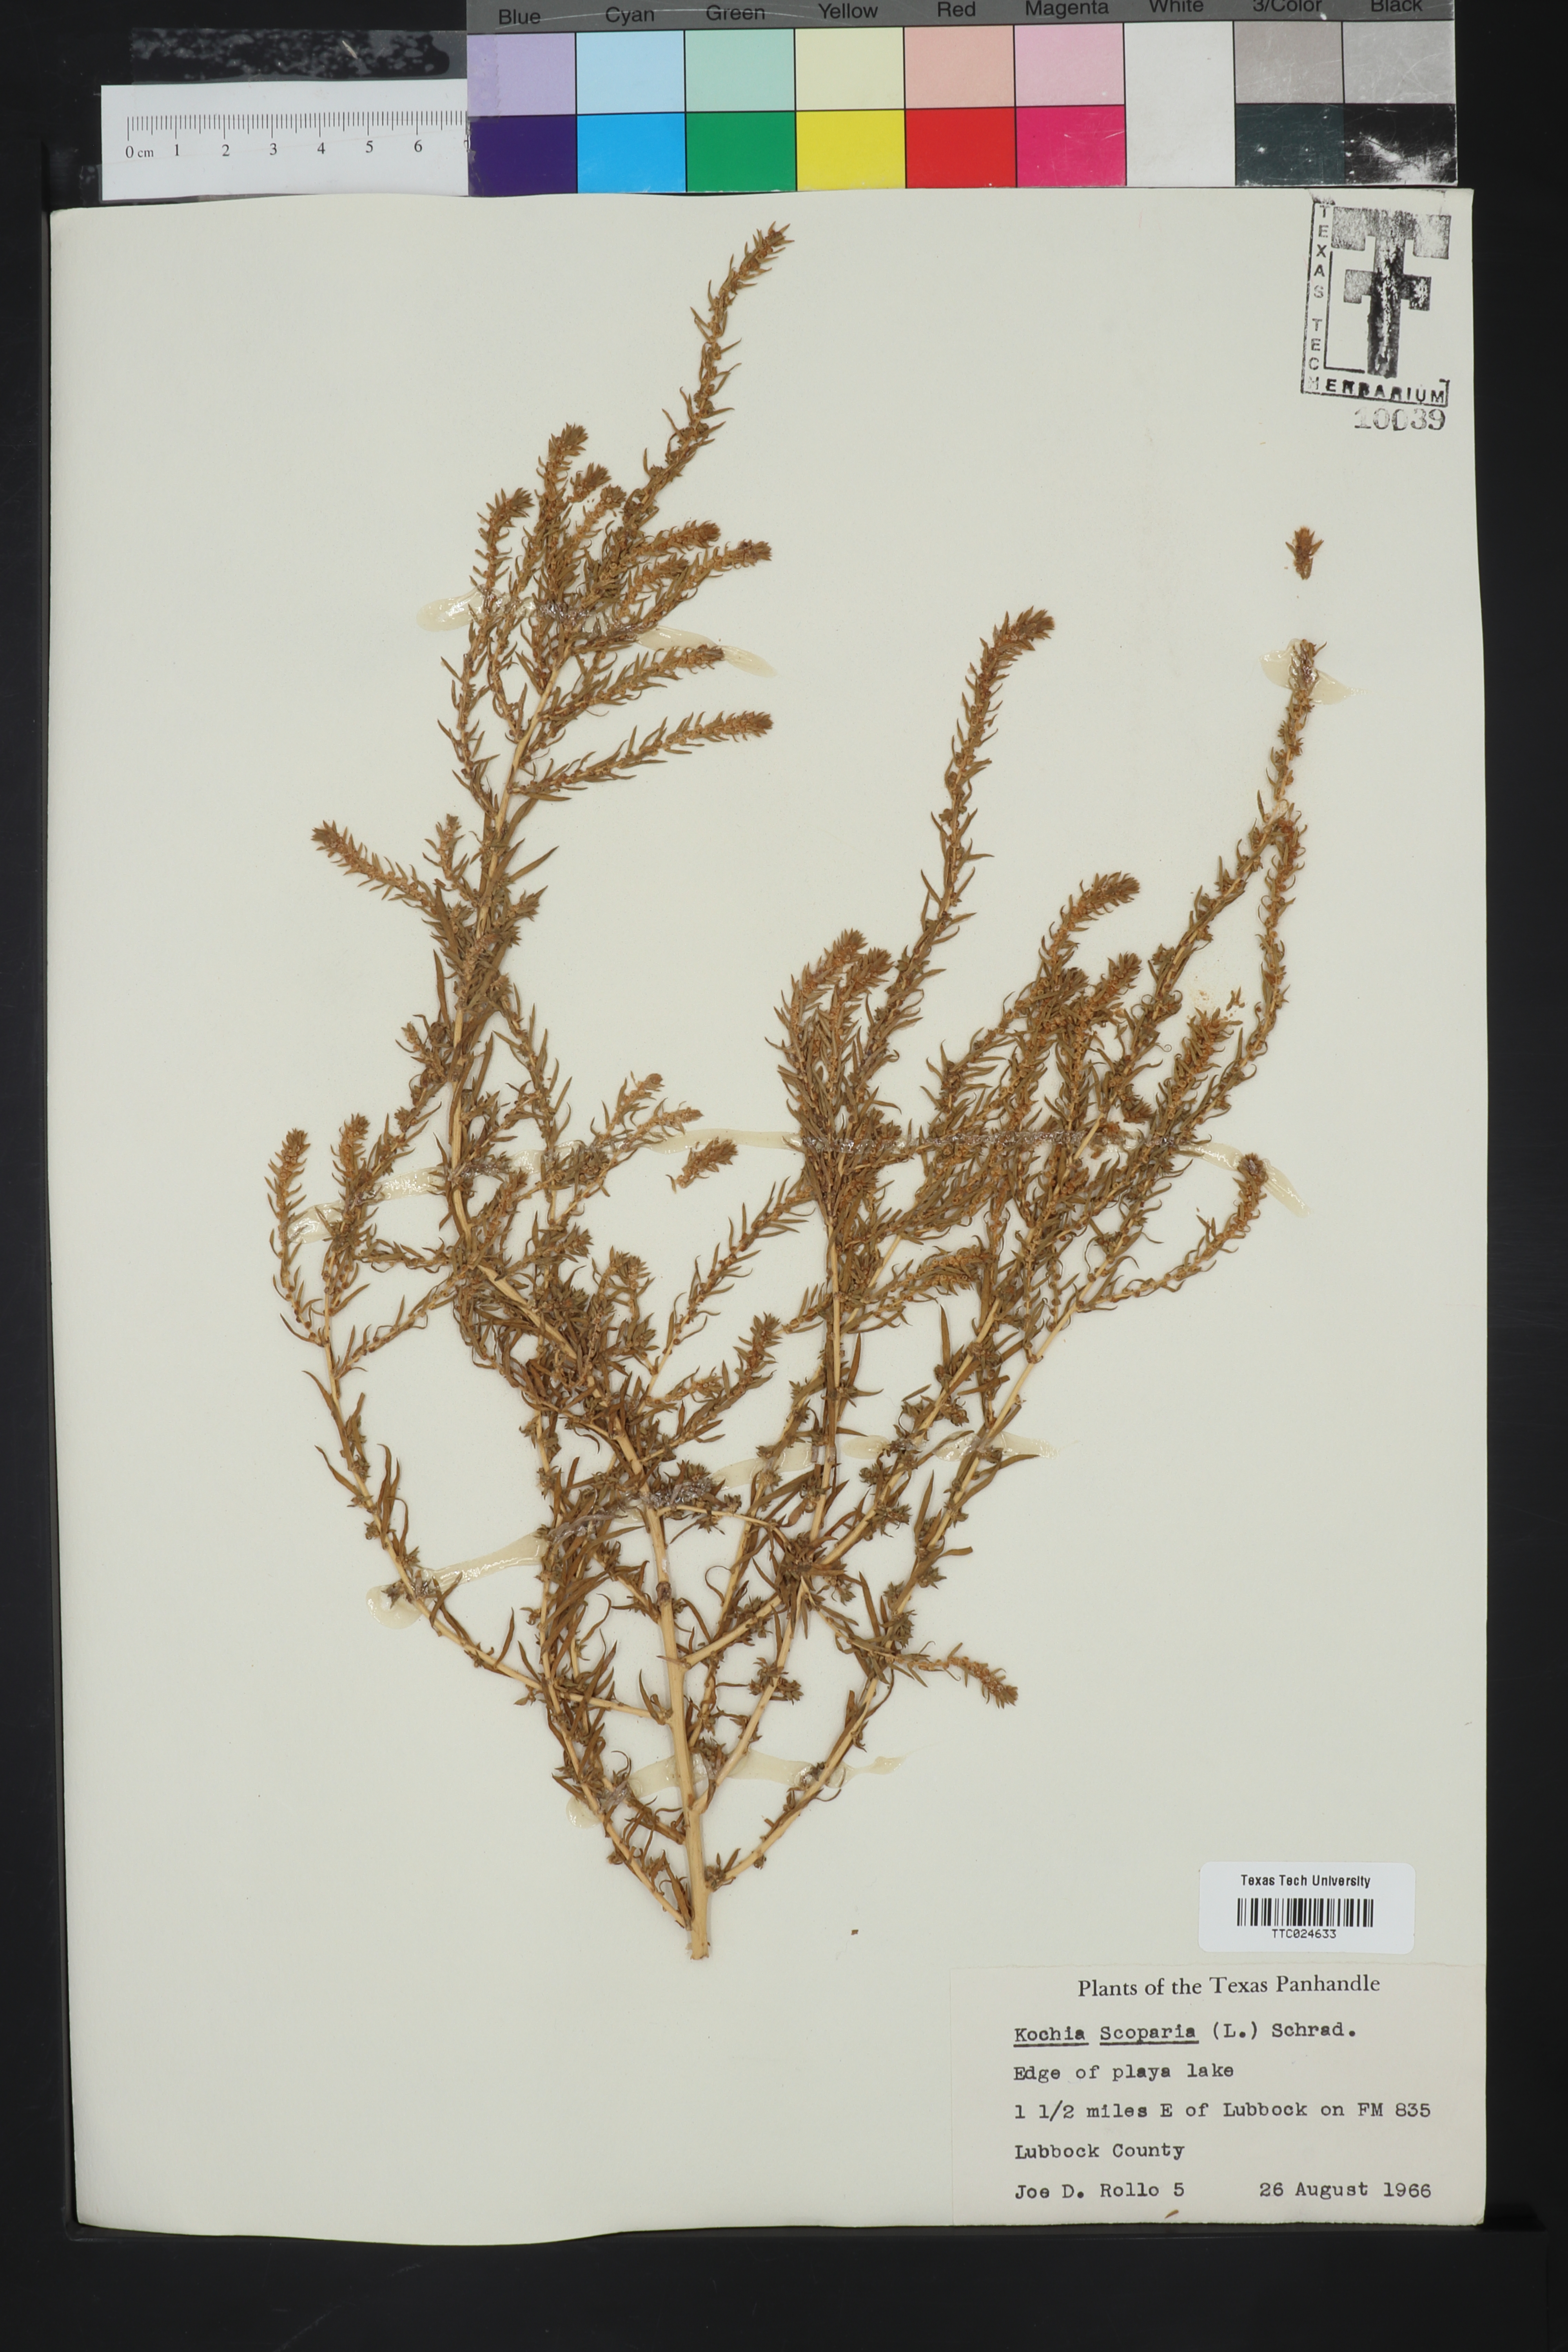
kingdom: Plantae
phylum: Tracheophyta
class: Magnoliopsida
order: Caryophyllales
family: Amaranthaceae
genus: Bassia
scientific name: Bassia scoparia
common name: Belvedere
